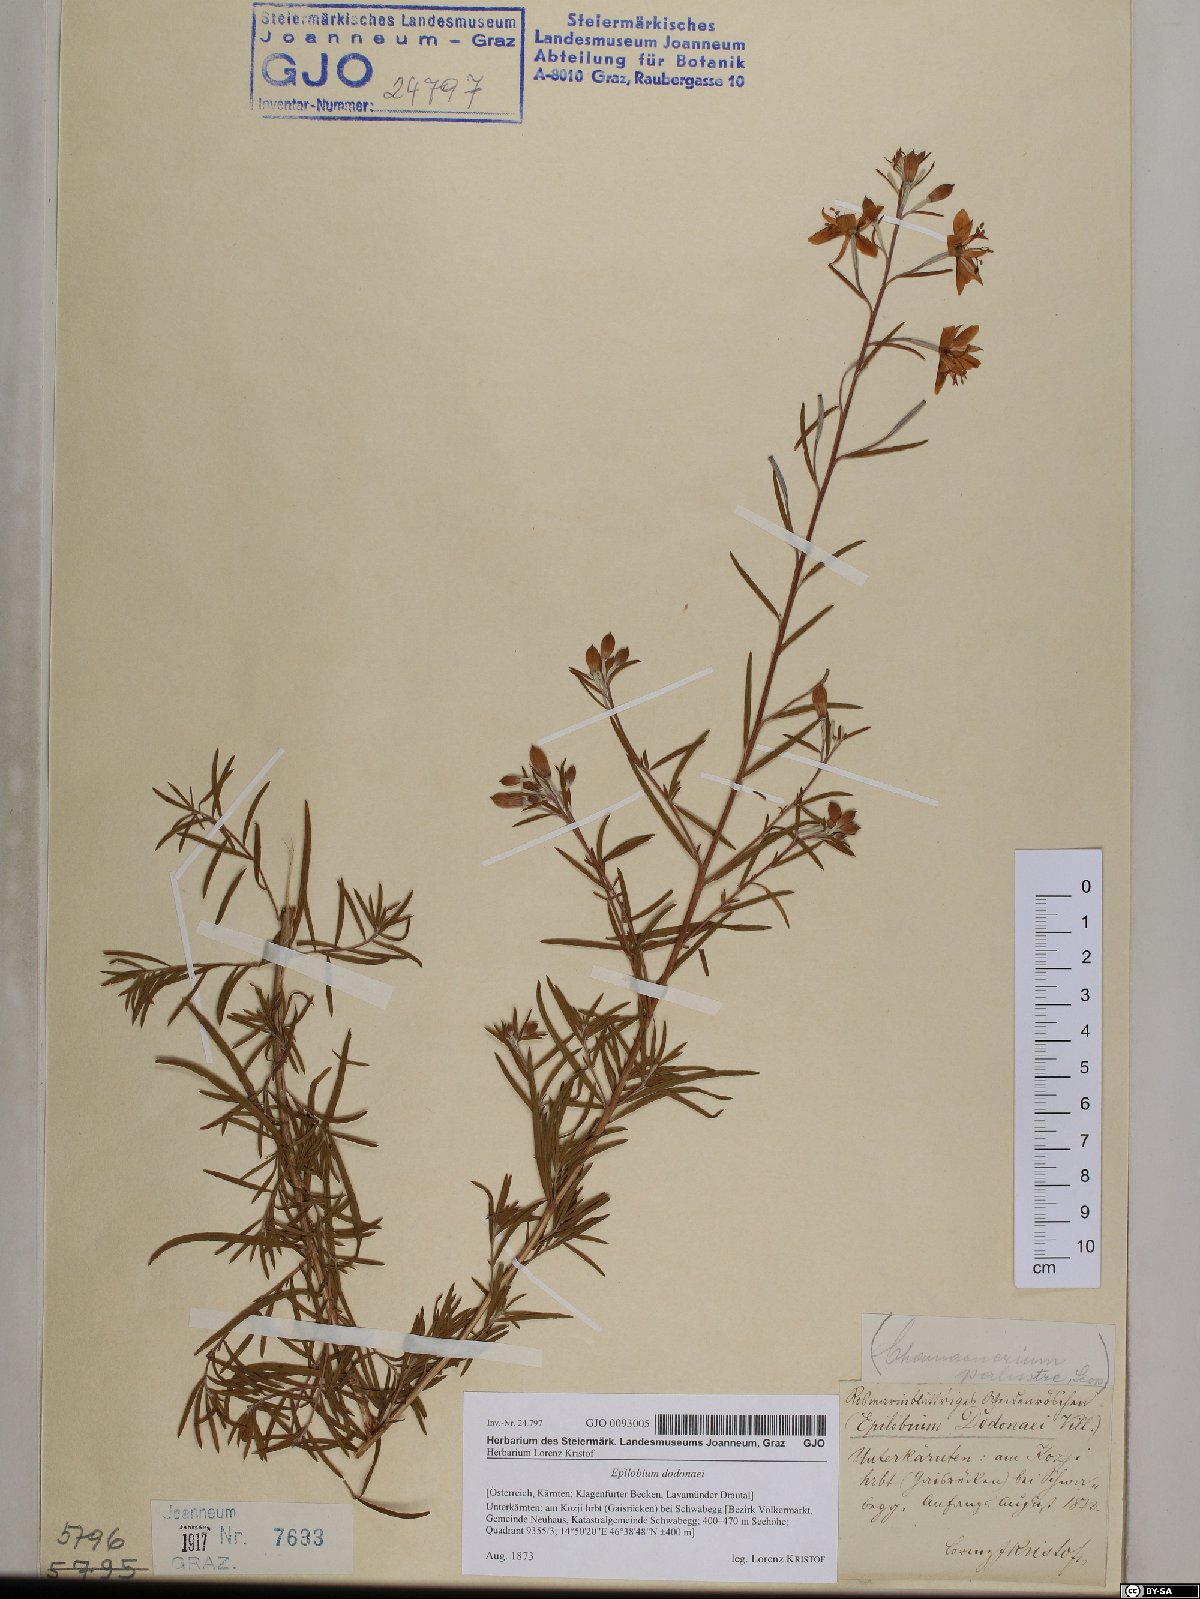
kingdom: Plantae
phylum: Tracheophyta
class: Magnoliopsida
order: Myrtales
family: Onagraceae
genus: Chamaenerion
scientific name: Chamaenerion dodonaei
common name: Rosemary-leaved willowherb
